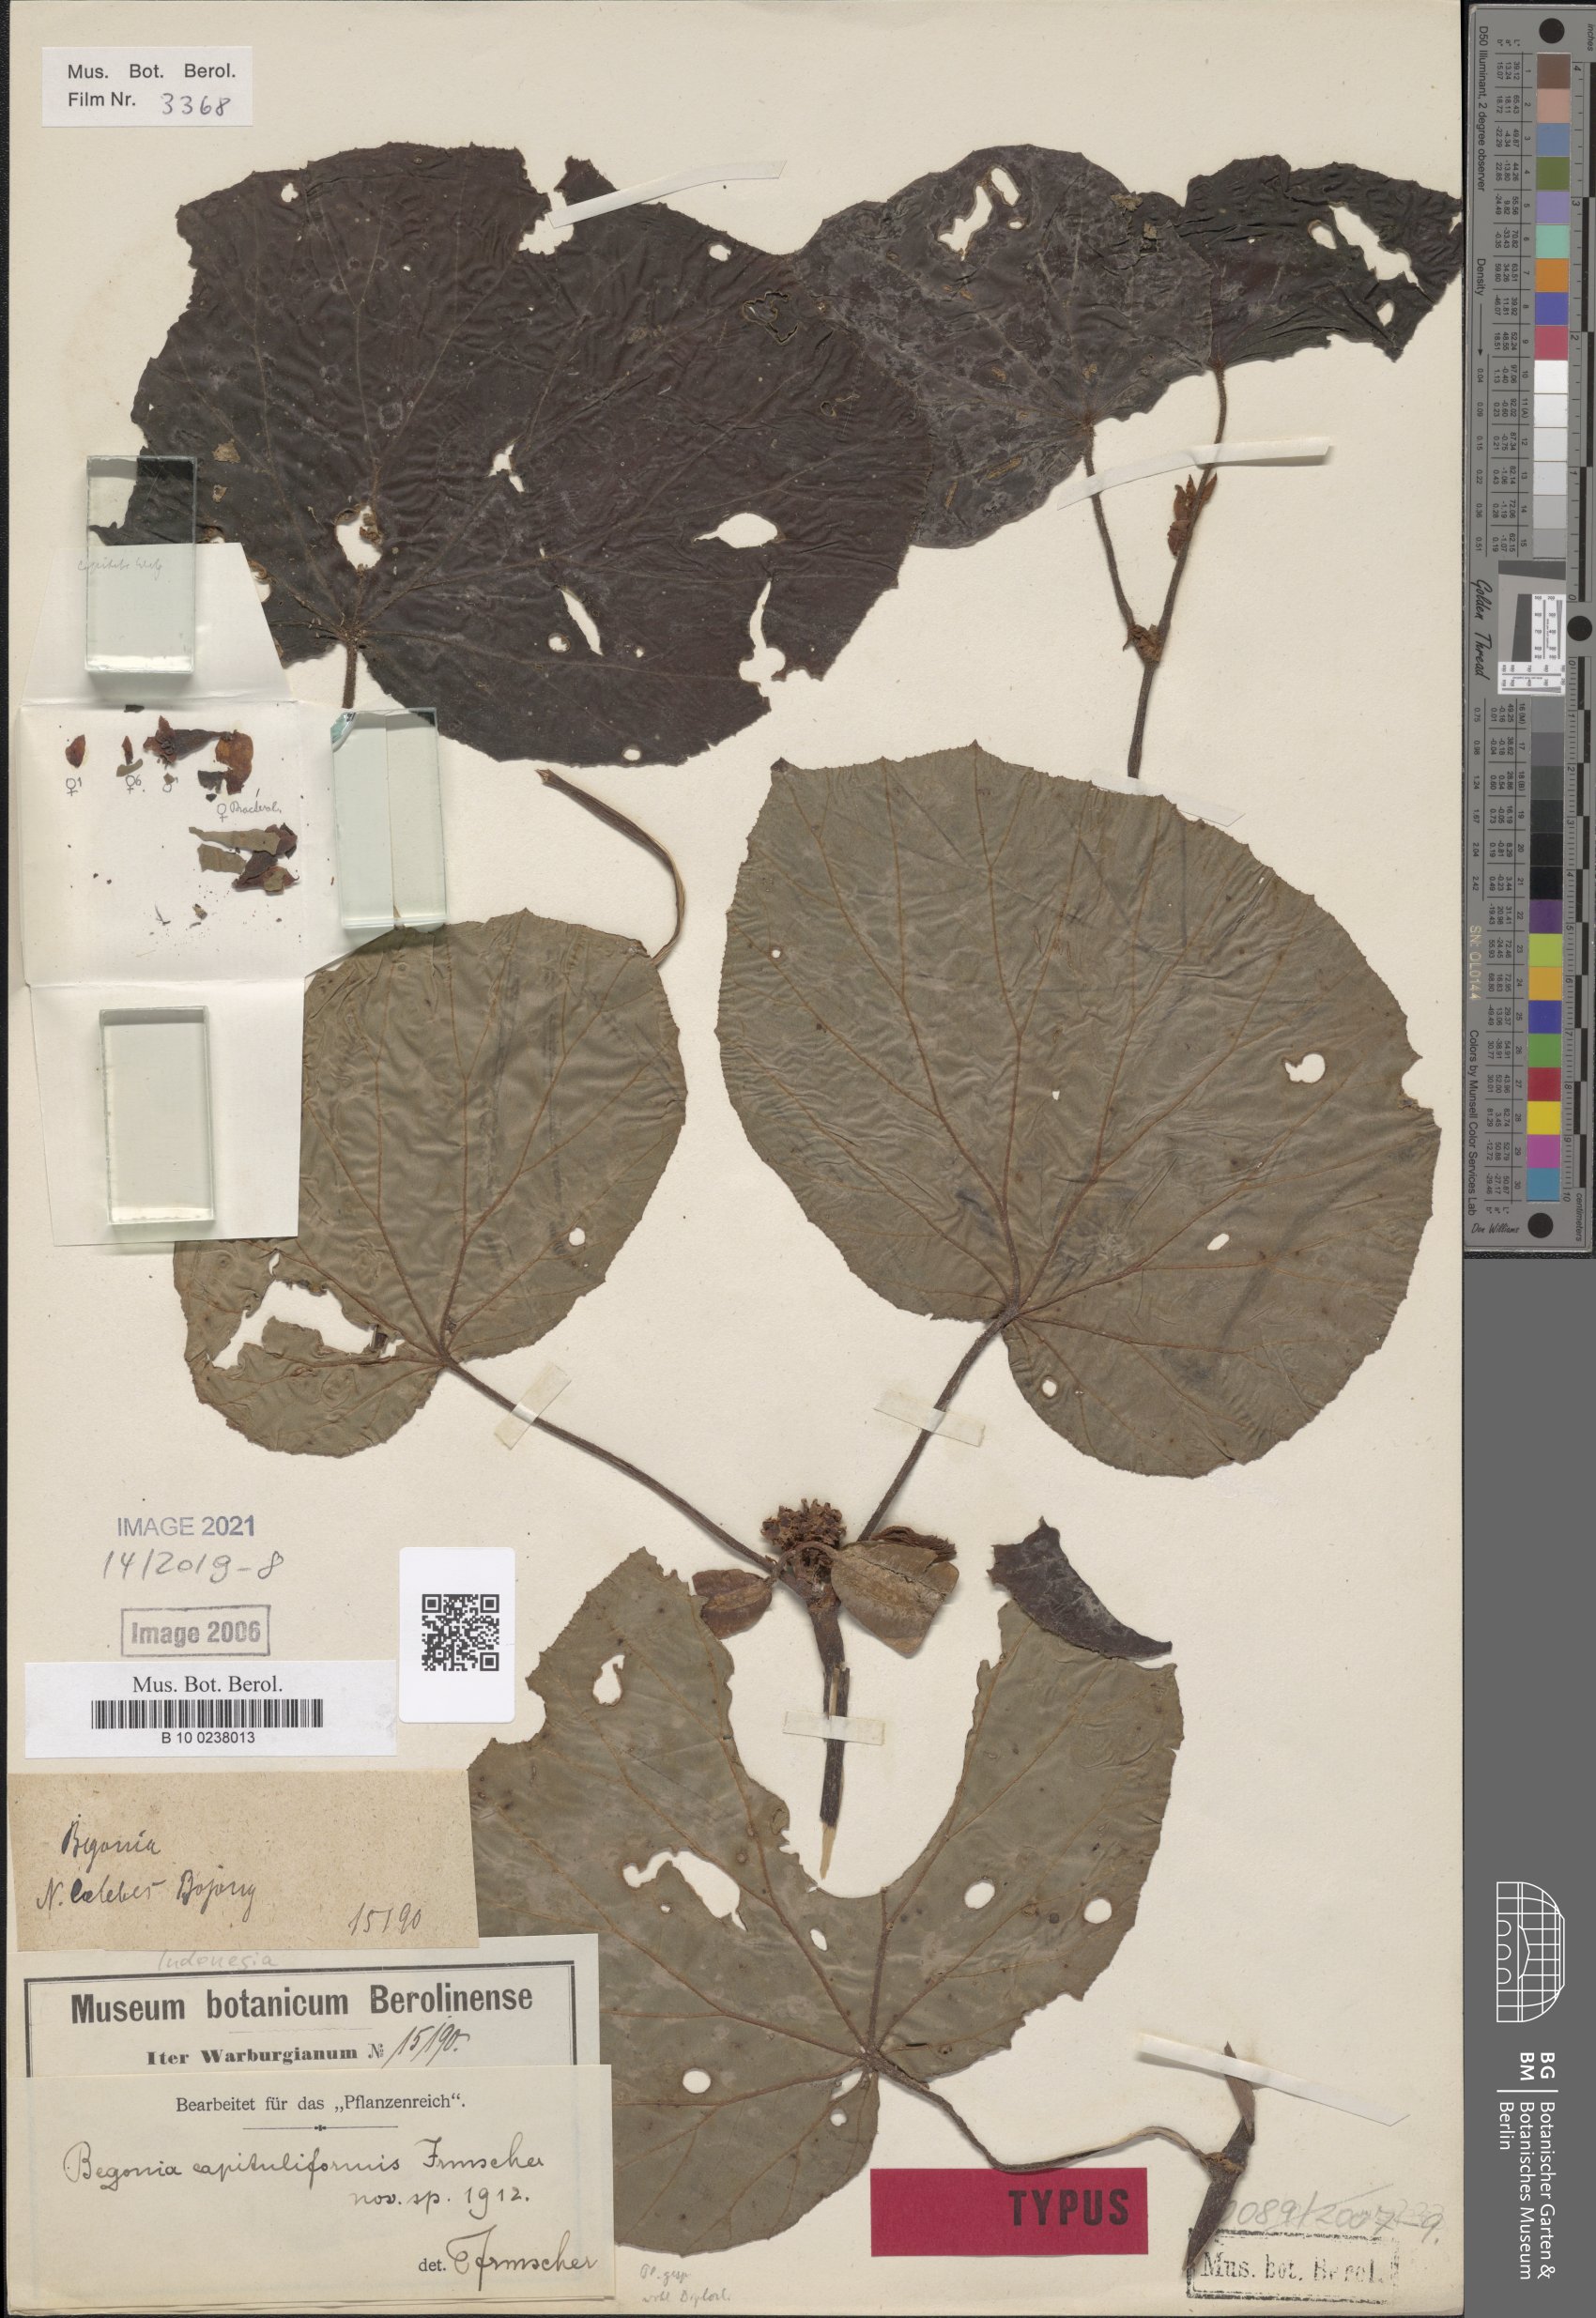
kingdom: Plantae
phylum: Tracheophyta
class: Magnoliopsida
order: Cucurbitales
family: Begoniaceae
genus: Begonia
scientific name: Begonia capituliformis
